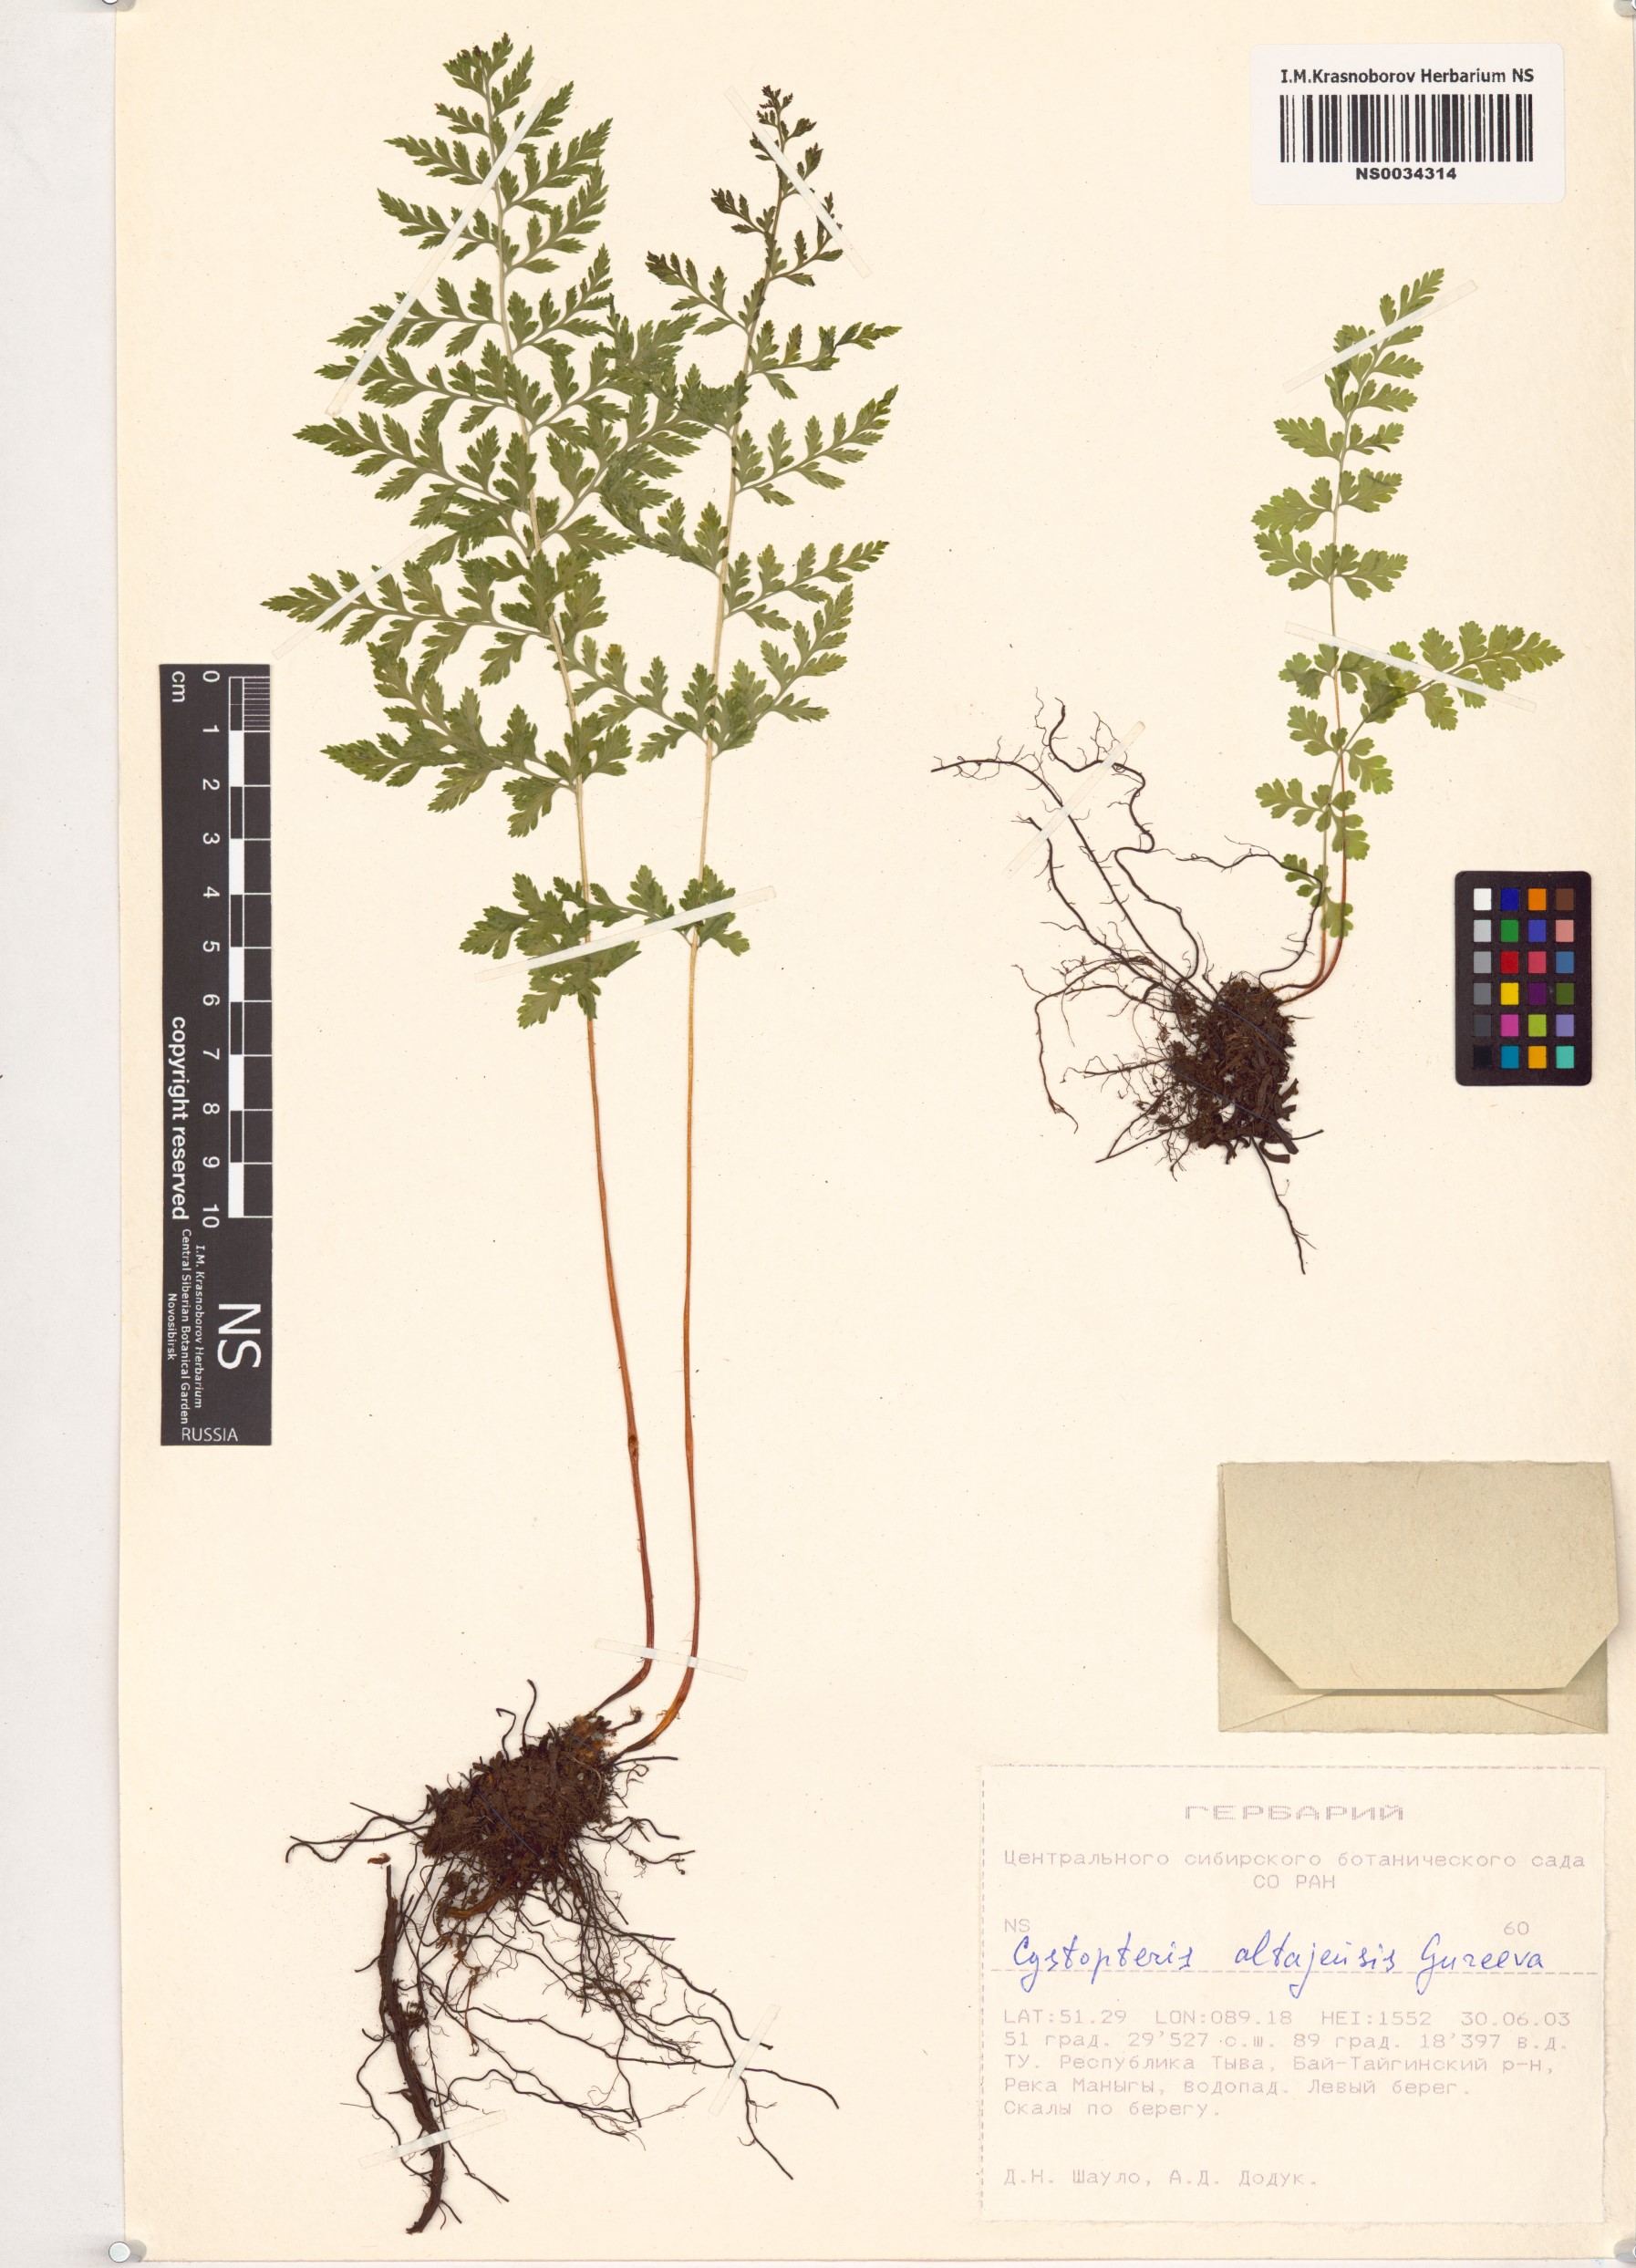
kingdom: Plantae
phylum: Tracheophyta
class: Polypodiopsida
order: Polypodiales
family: Cystopteridaceae
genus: Cystopteris
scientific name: Cystopteris diaphana
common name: Greenish bladder-fern
